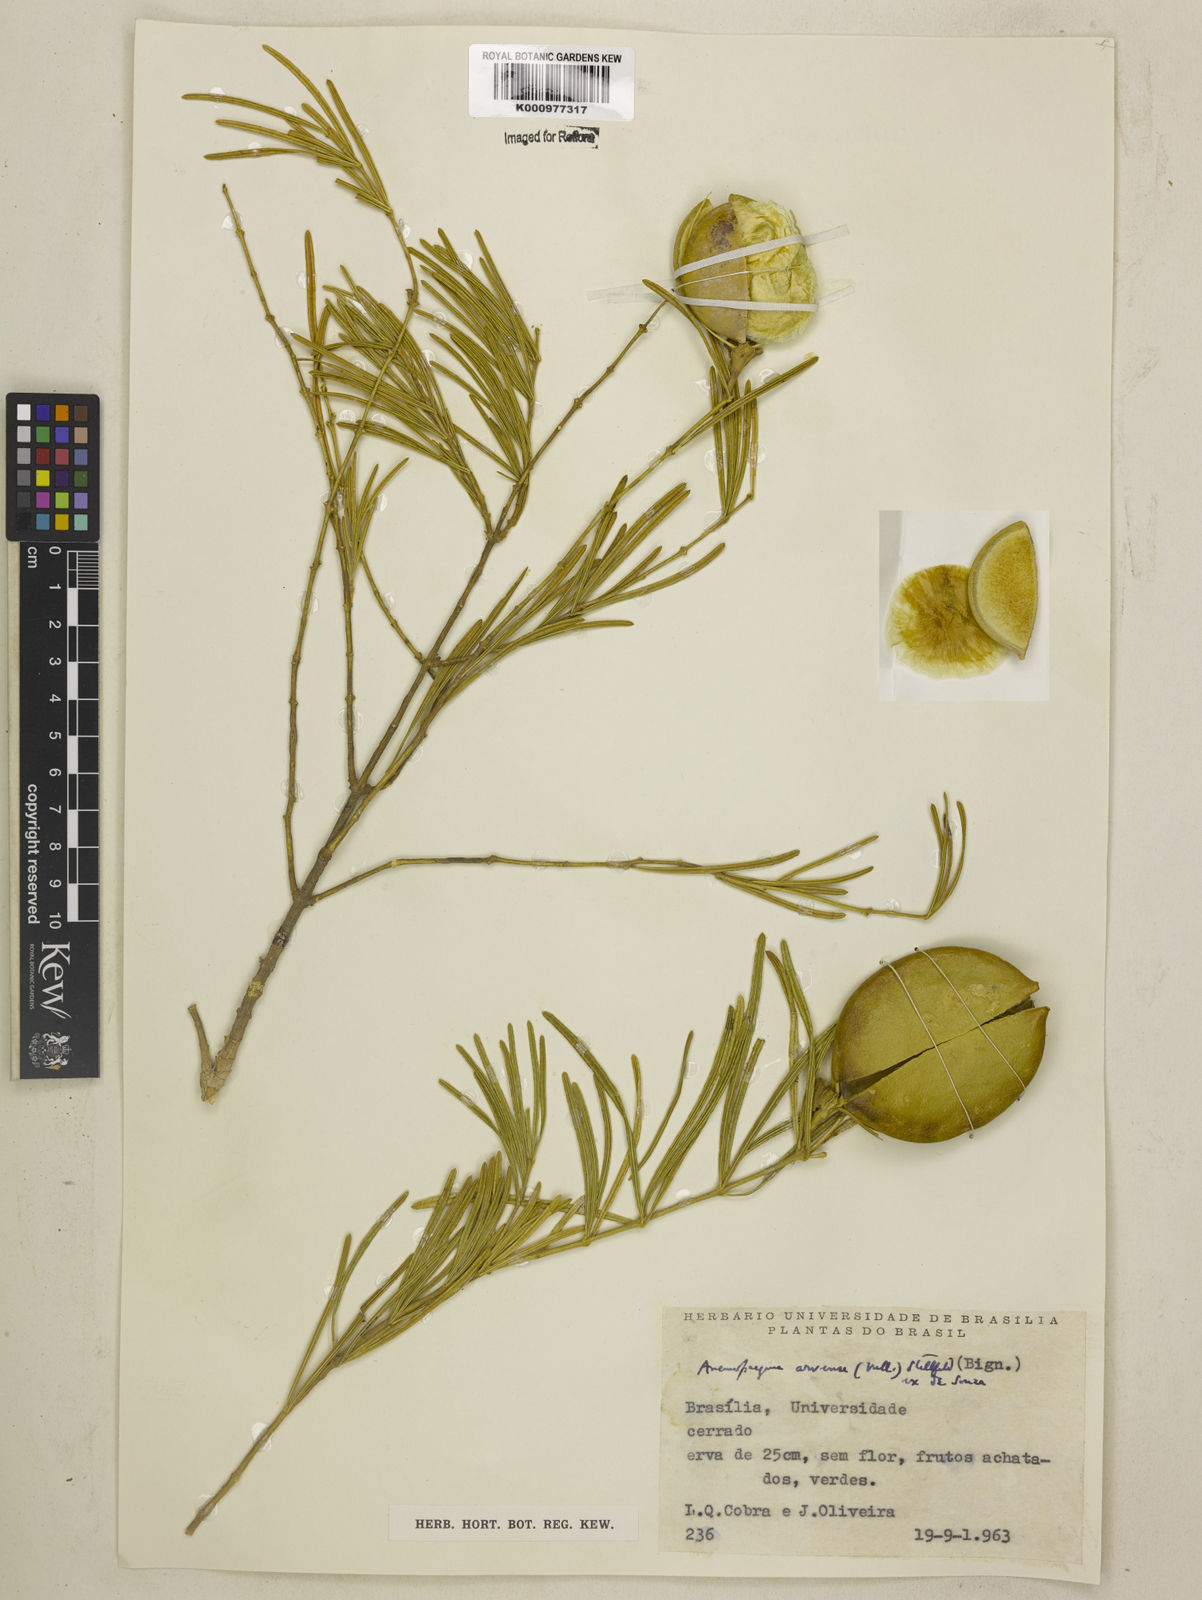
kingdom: Plantae
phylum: Tracheophyta
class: Magnoliopsida
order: Lamiales
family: Bignoniaceae
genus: Anemopaegma
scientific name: Anemopaegma arvense
